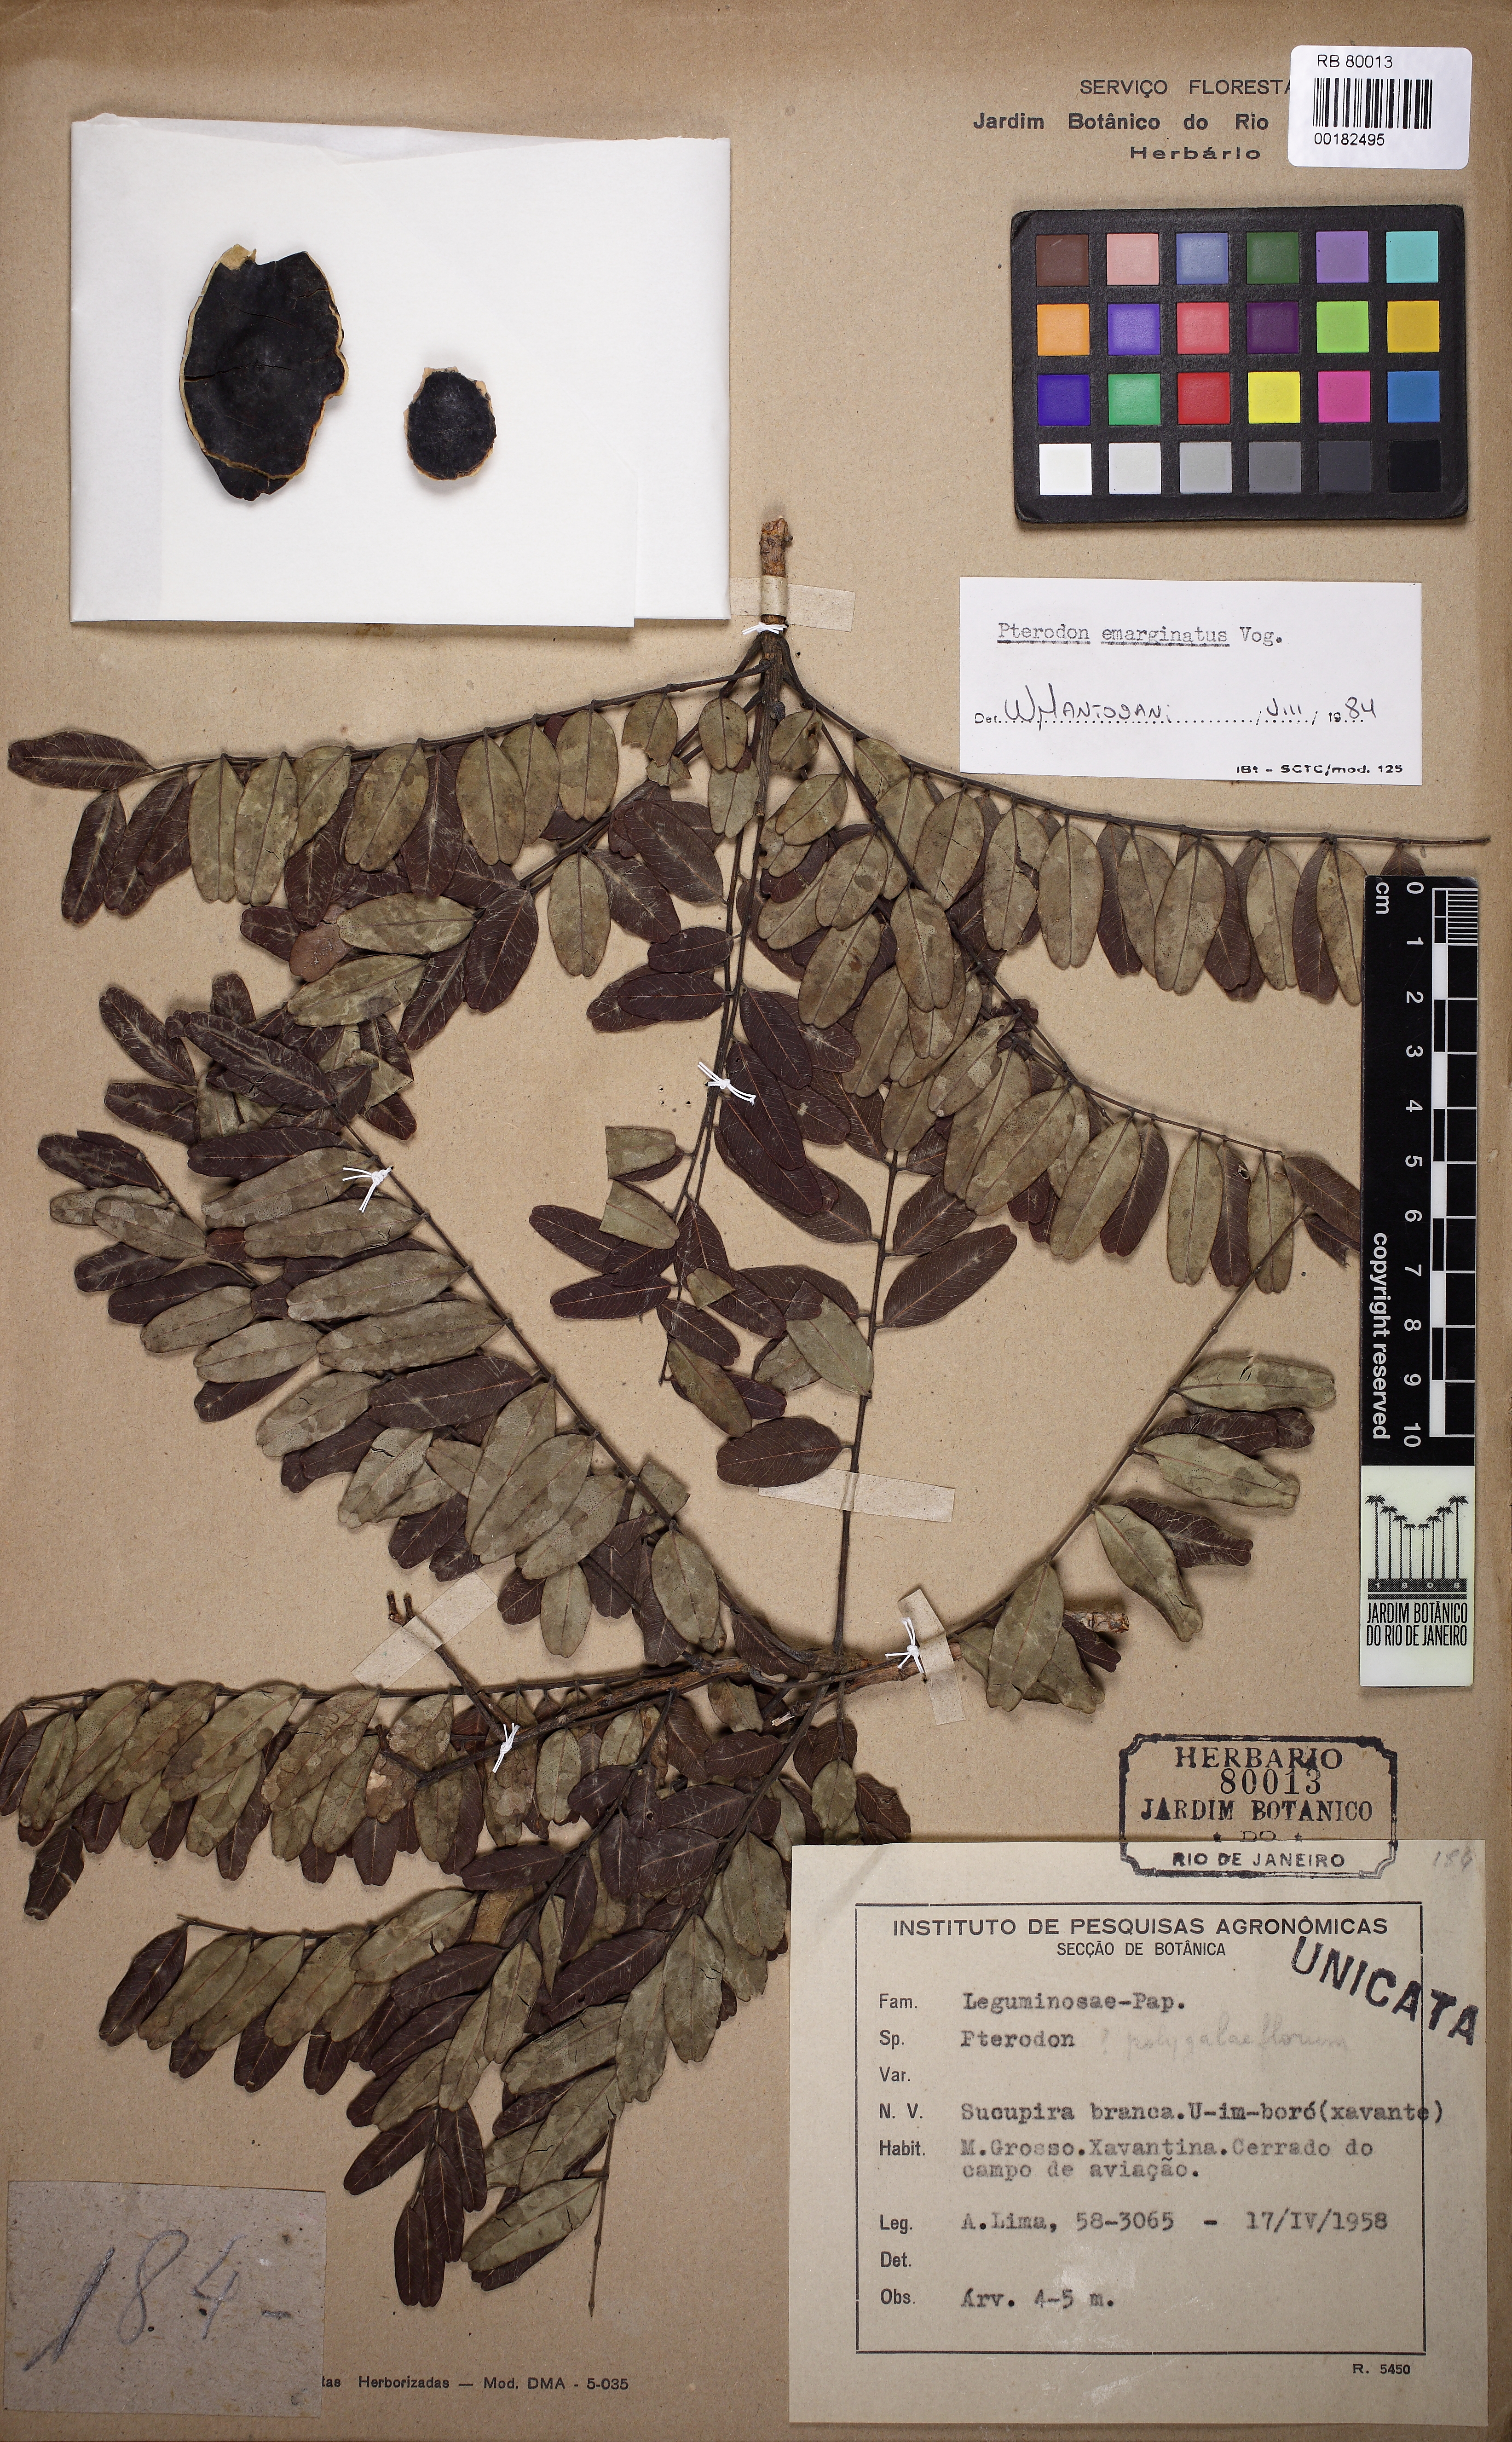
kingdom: Plantae
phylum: Tracheophyta
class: Magnoliopsida
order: Fabales
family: Fabaceae
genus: Pterodon
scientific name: Pterodon emarginatus
